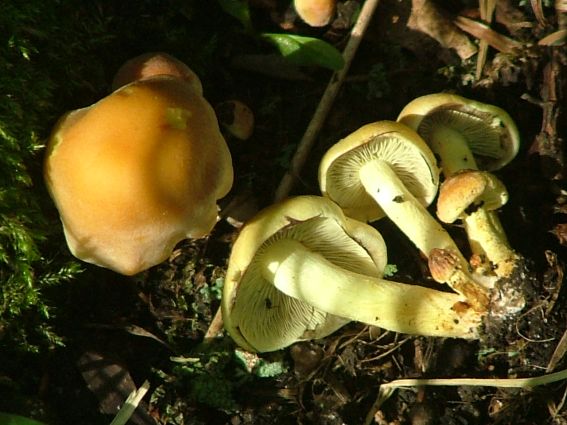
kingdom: Fungi
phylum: Basidiomycota
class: Agaricomycetes
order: Agaricales
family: Strophariaceae
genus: Hypholoma
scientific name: Hypholoma fasciculare
